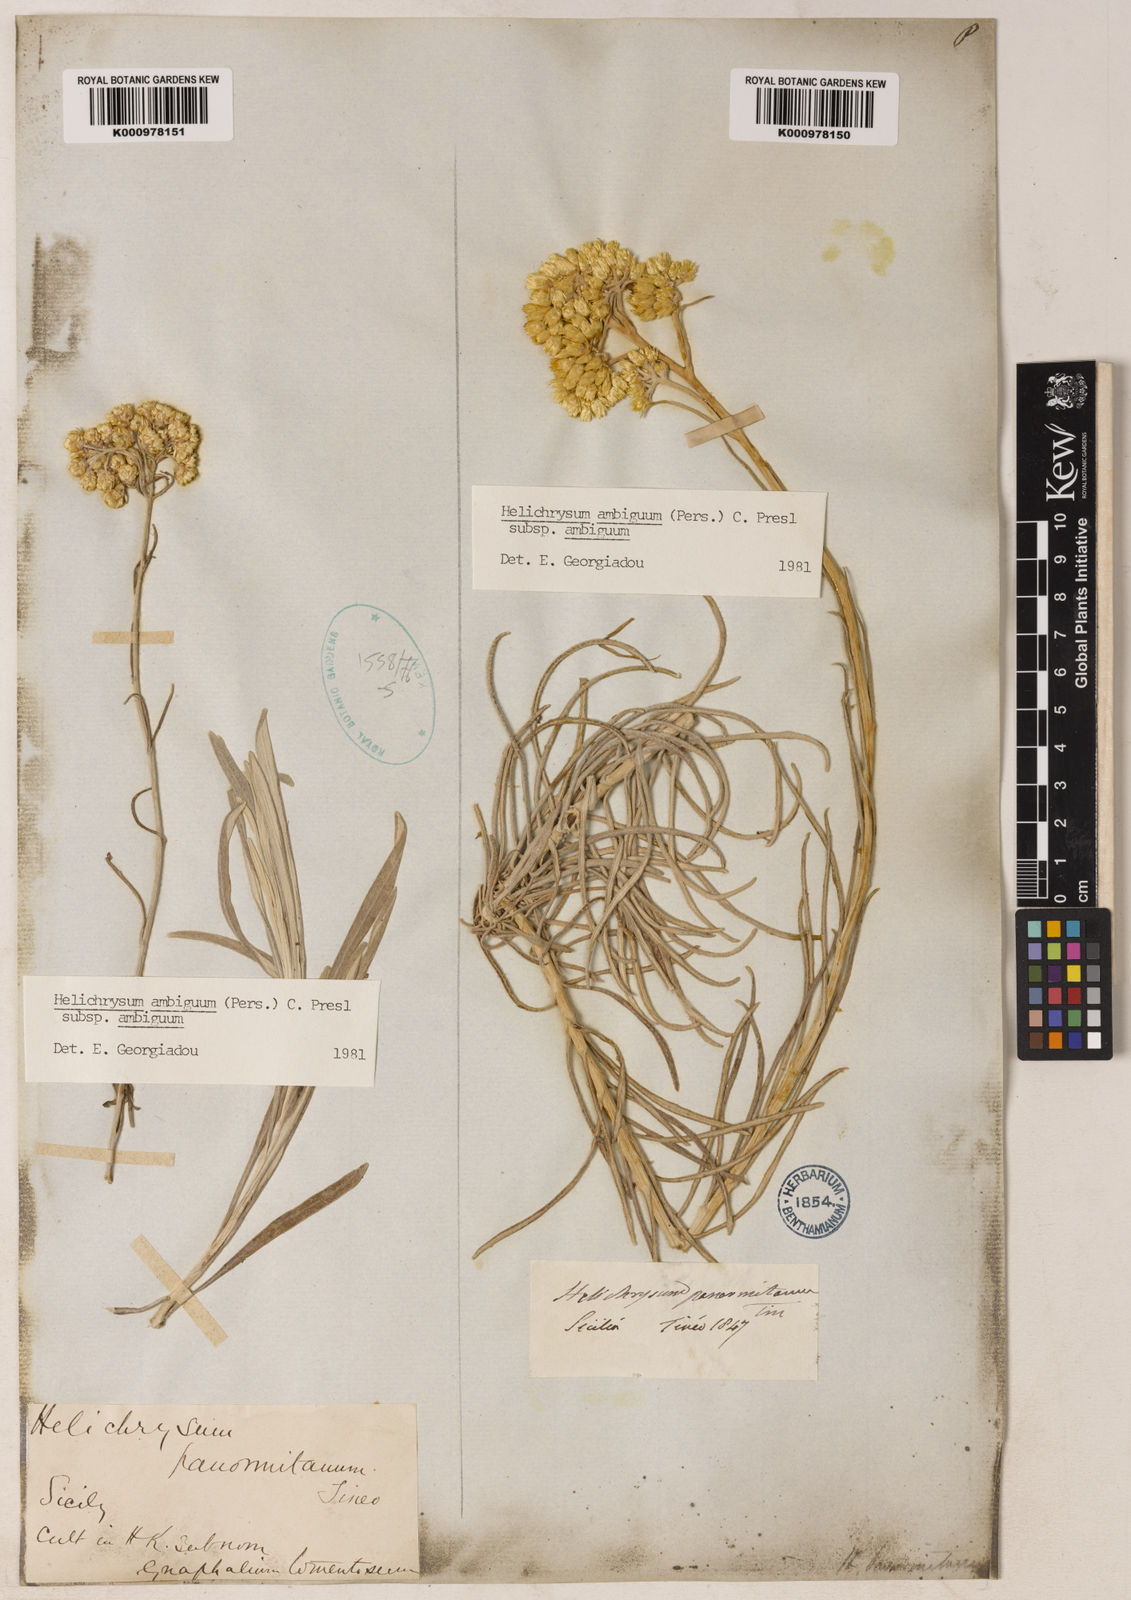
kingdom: Plantae
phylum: Tracheophyta
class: Magnoliopsida
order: Asterales
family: Asteraceae
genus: Leiocarpa
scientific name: Leiocarpa semicalva
